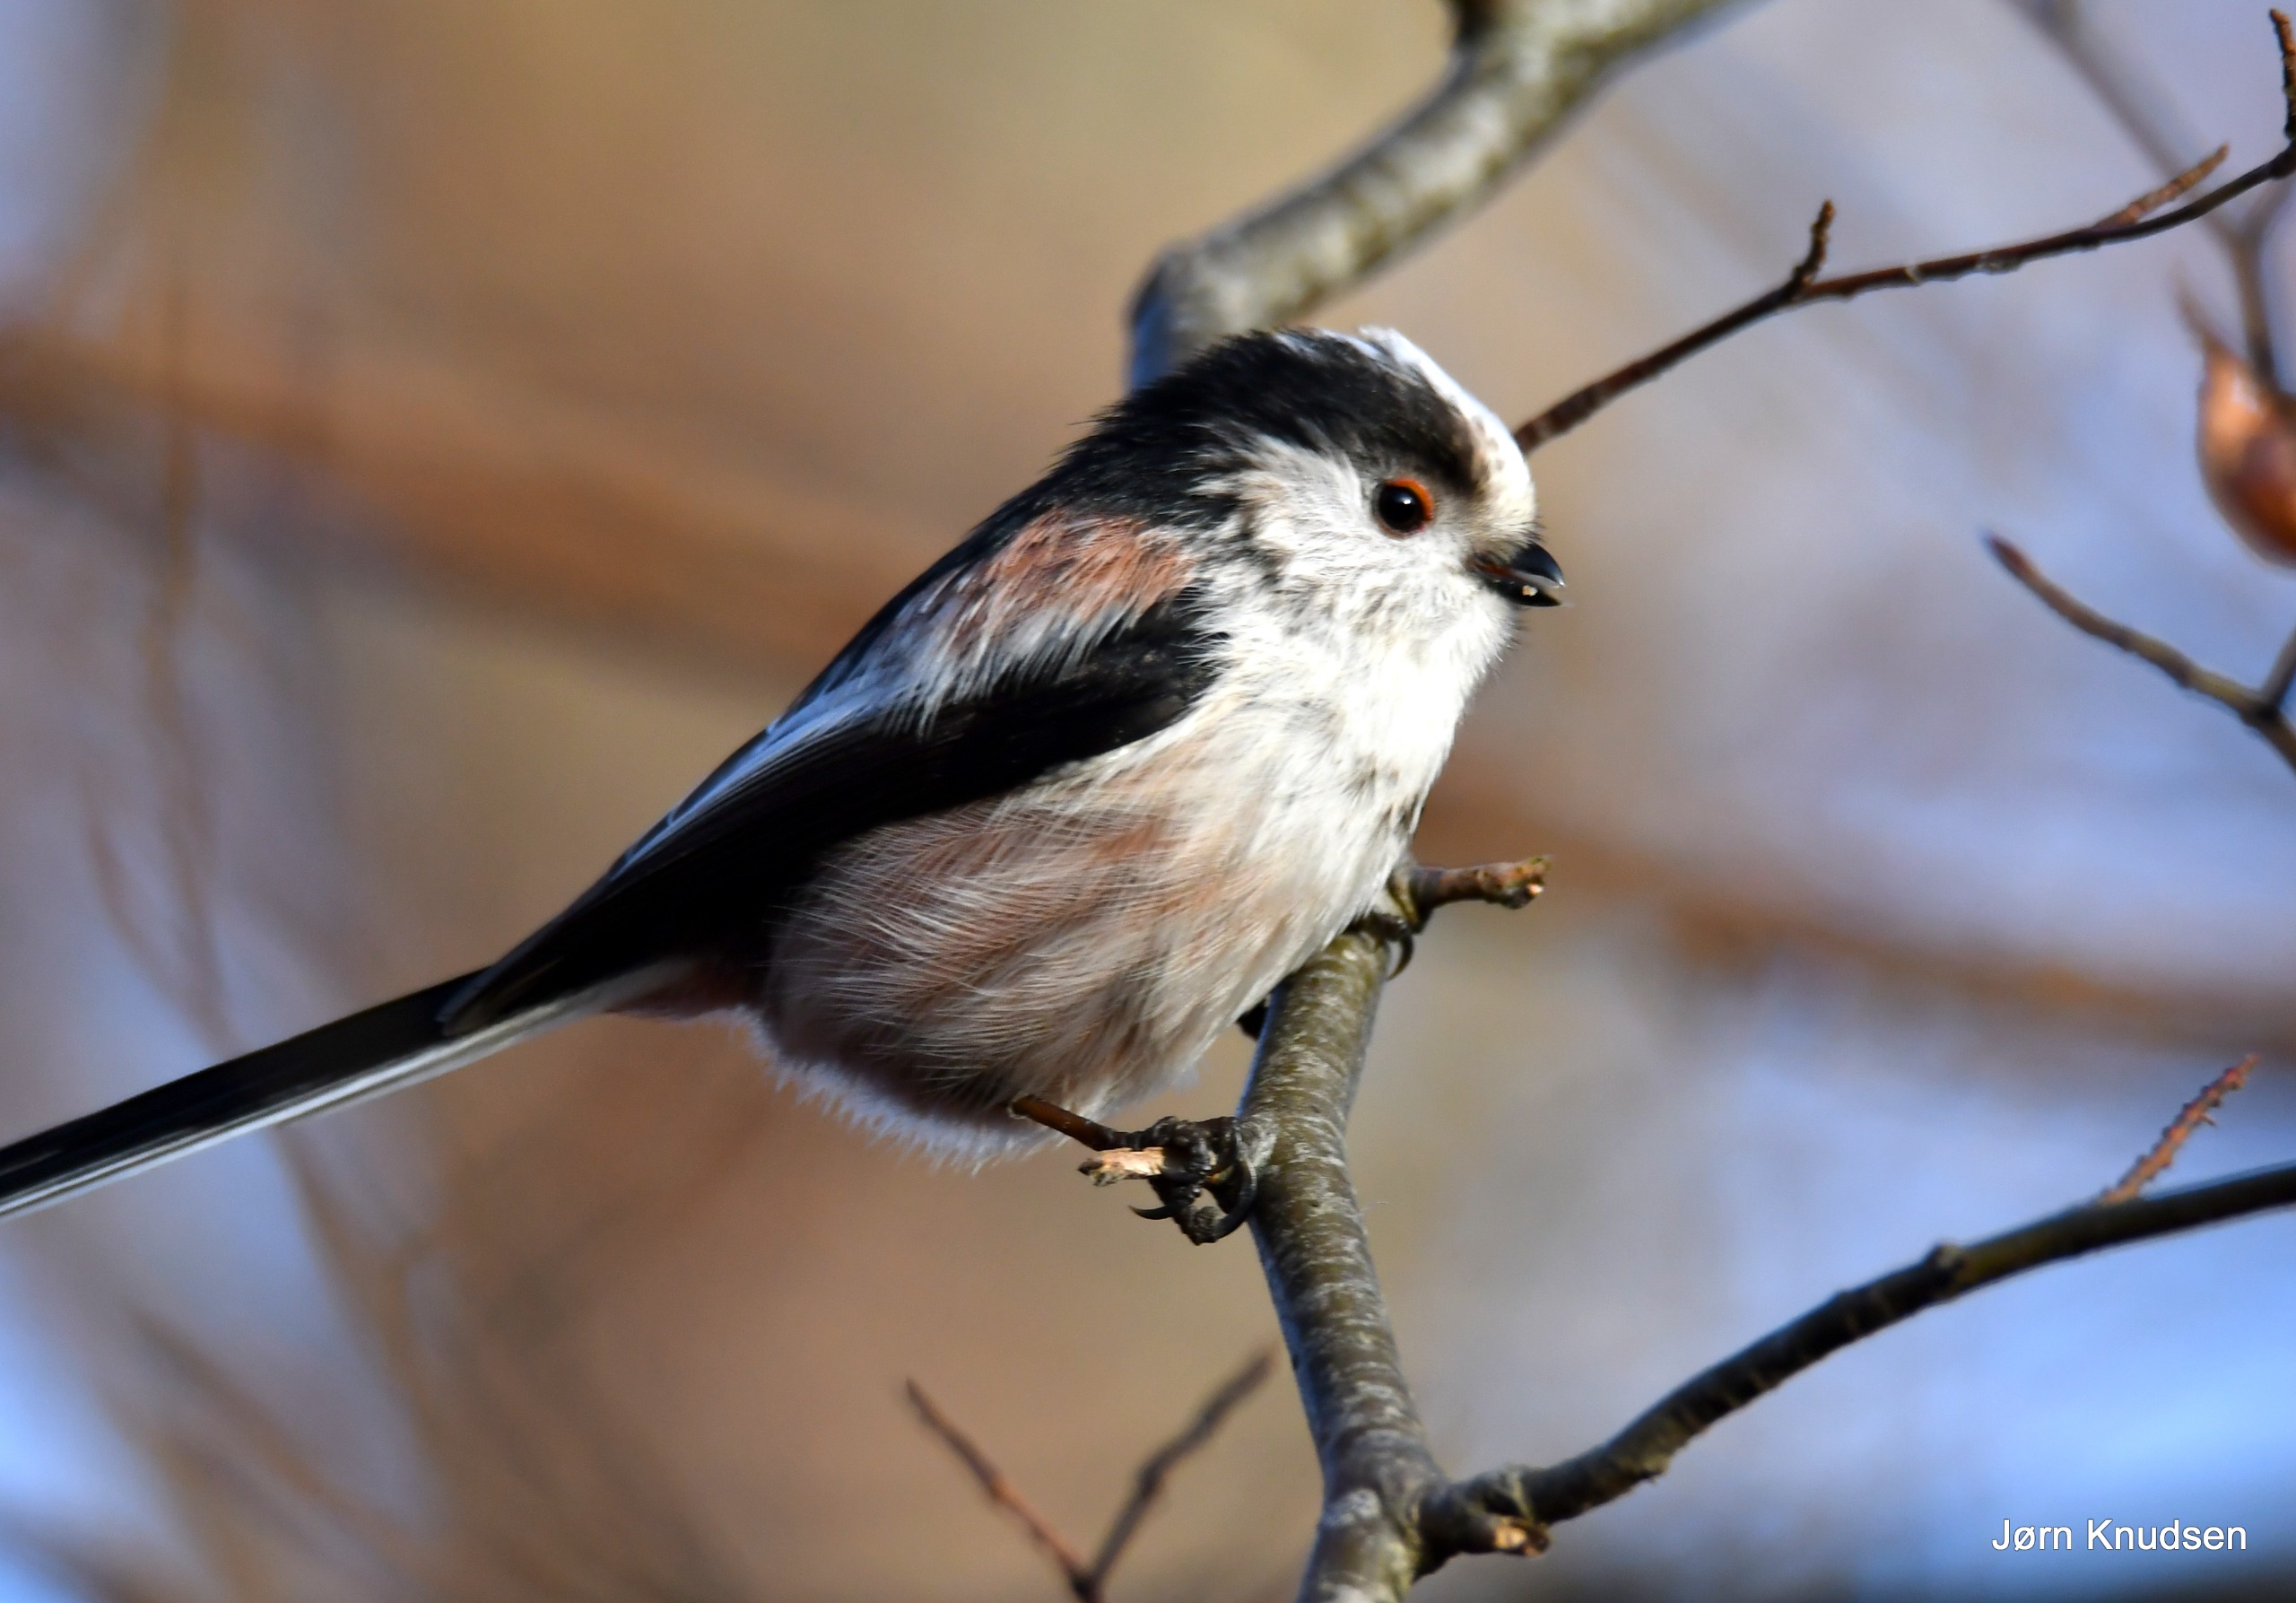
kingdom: Animalia
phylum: Chordata
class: Aves
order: Passeriformes
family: Aegithalidae
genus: Aegithalos
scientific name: Aegithalos caudatus
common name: Halemejse
